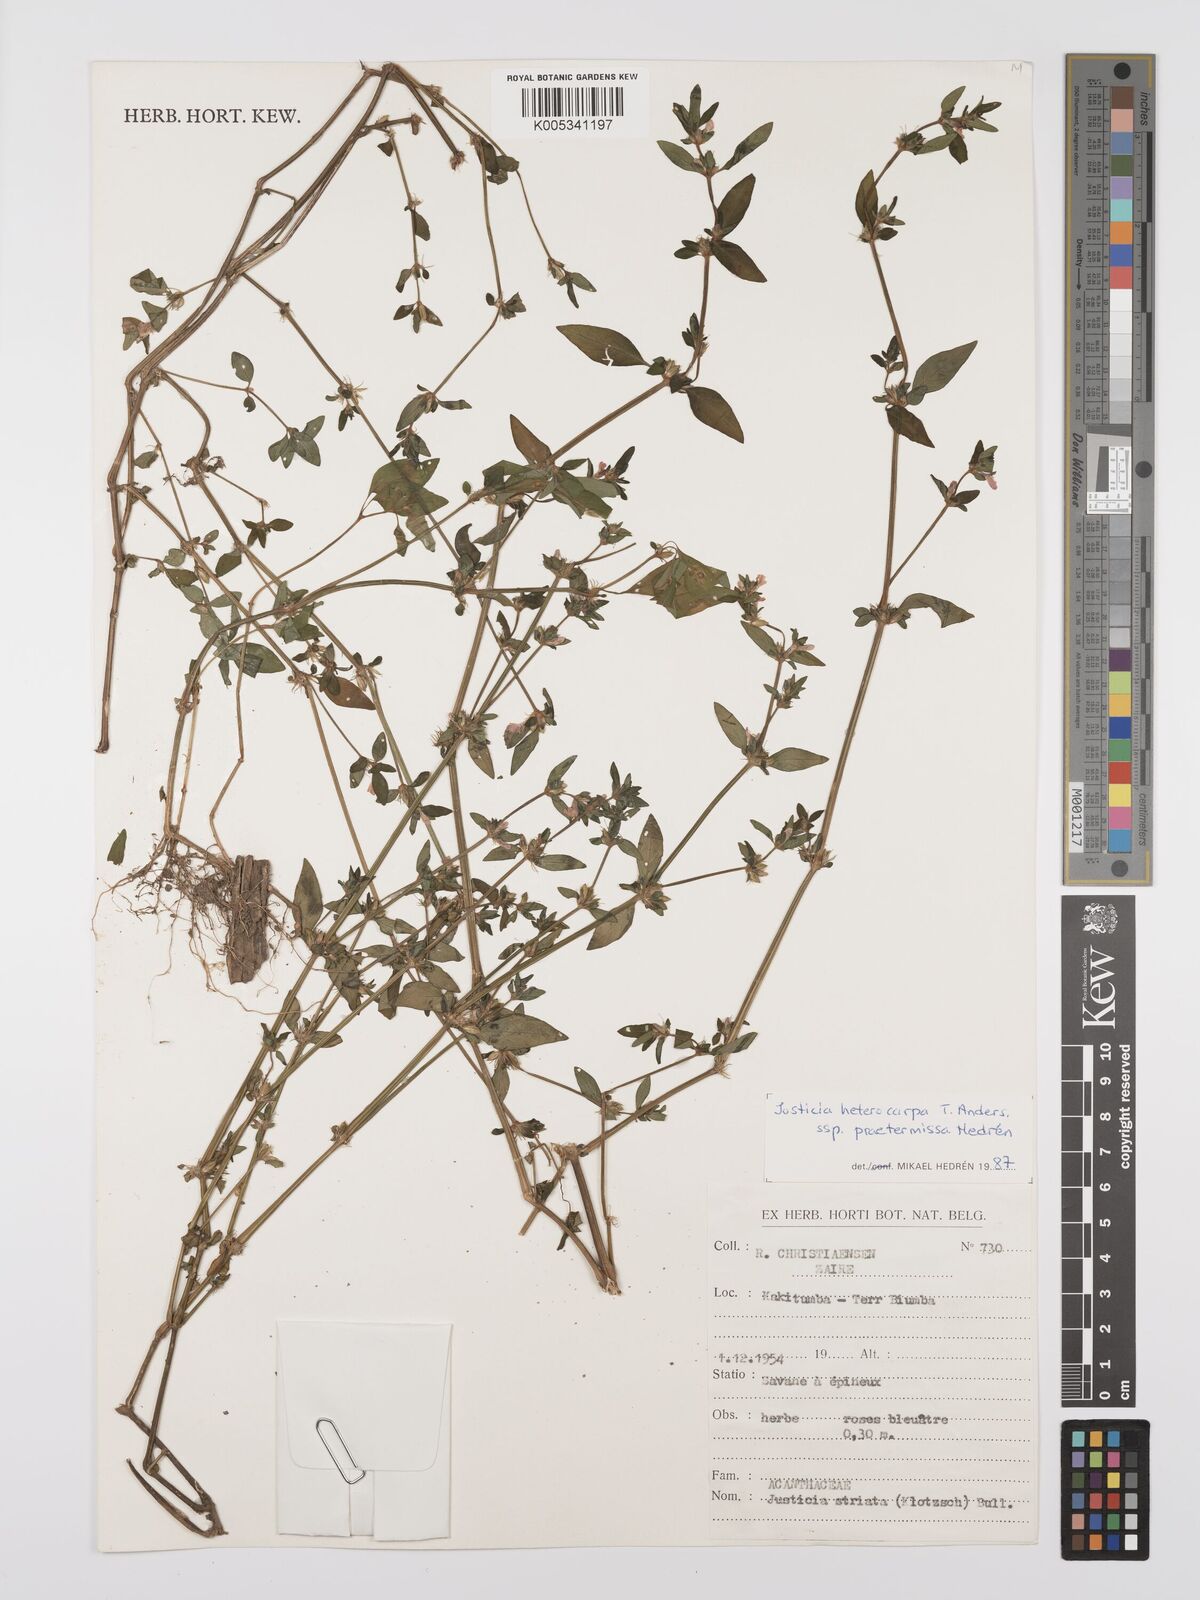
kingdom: Plantae
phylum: Tracheophyta
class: Magnoliopsida
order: Lamiales
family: Acanthaceae
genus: Justicia
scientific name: Justicia heterocarpa
